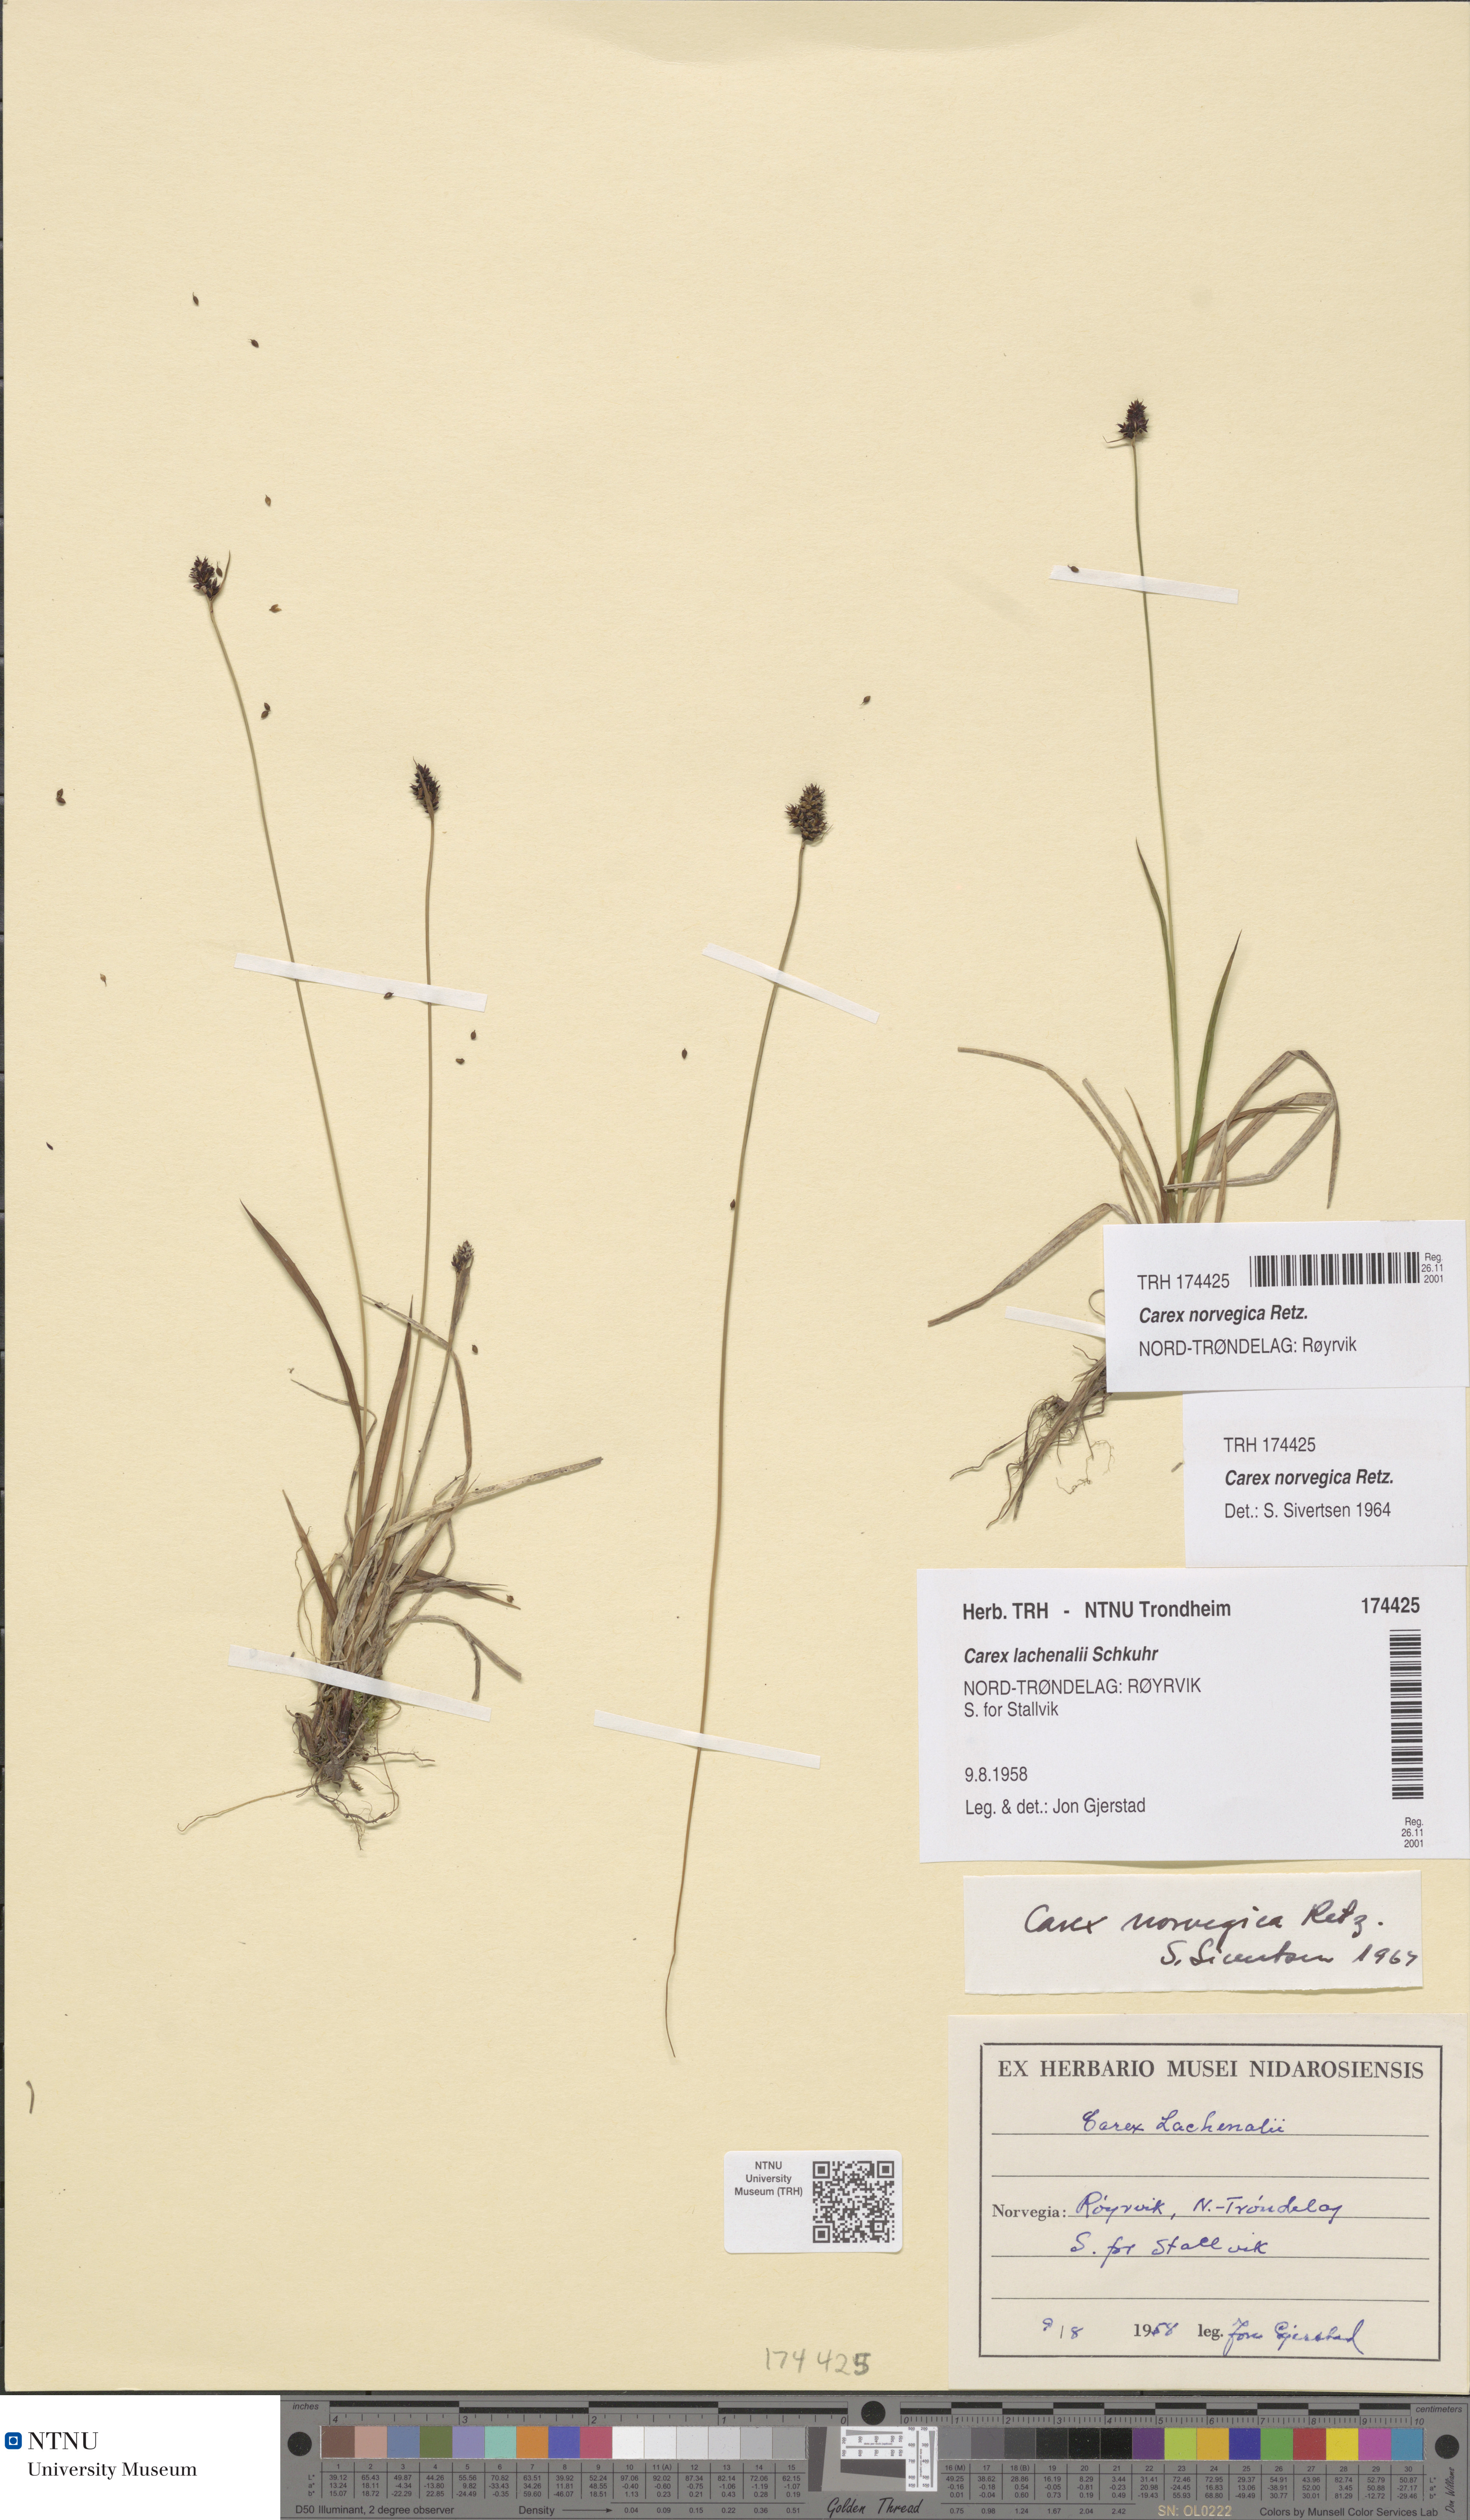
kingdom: Plantae
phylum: Tracheophyta
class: Liliopsida
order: Poales
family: Cyperaceae
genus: Carex
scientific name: Carex norvegica
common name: Close-headed alpine-sedge
